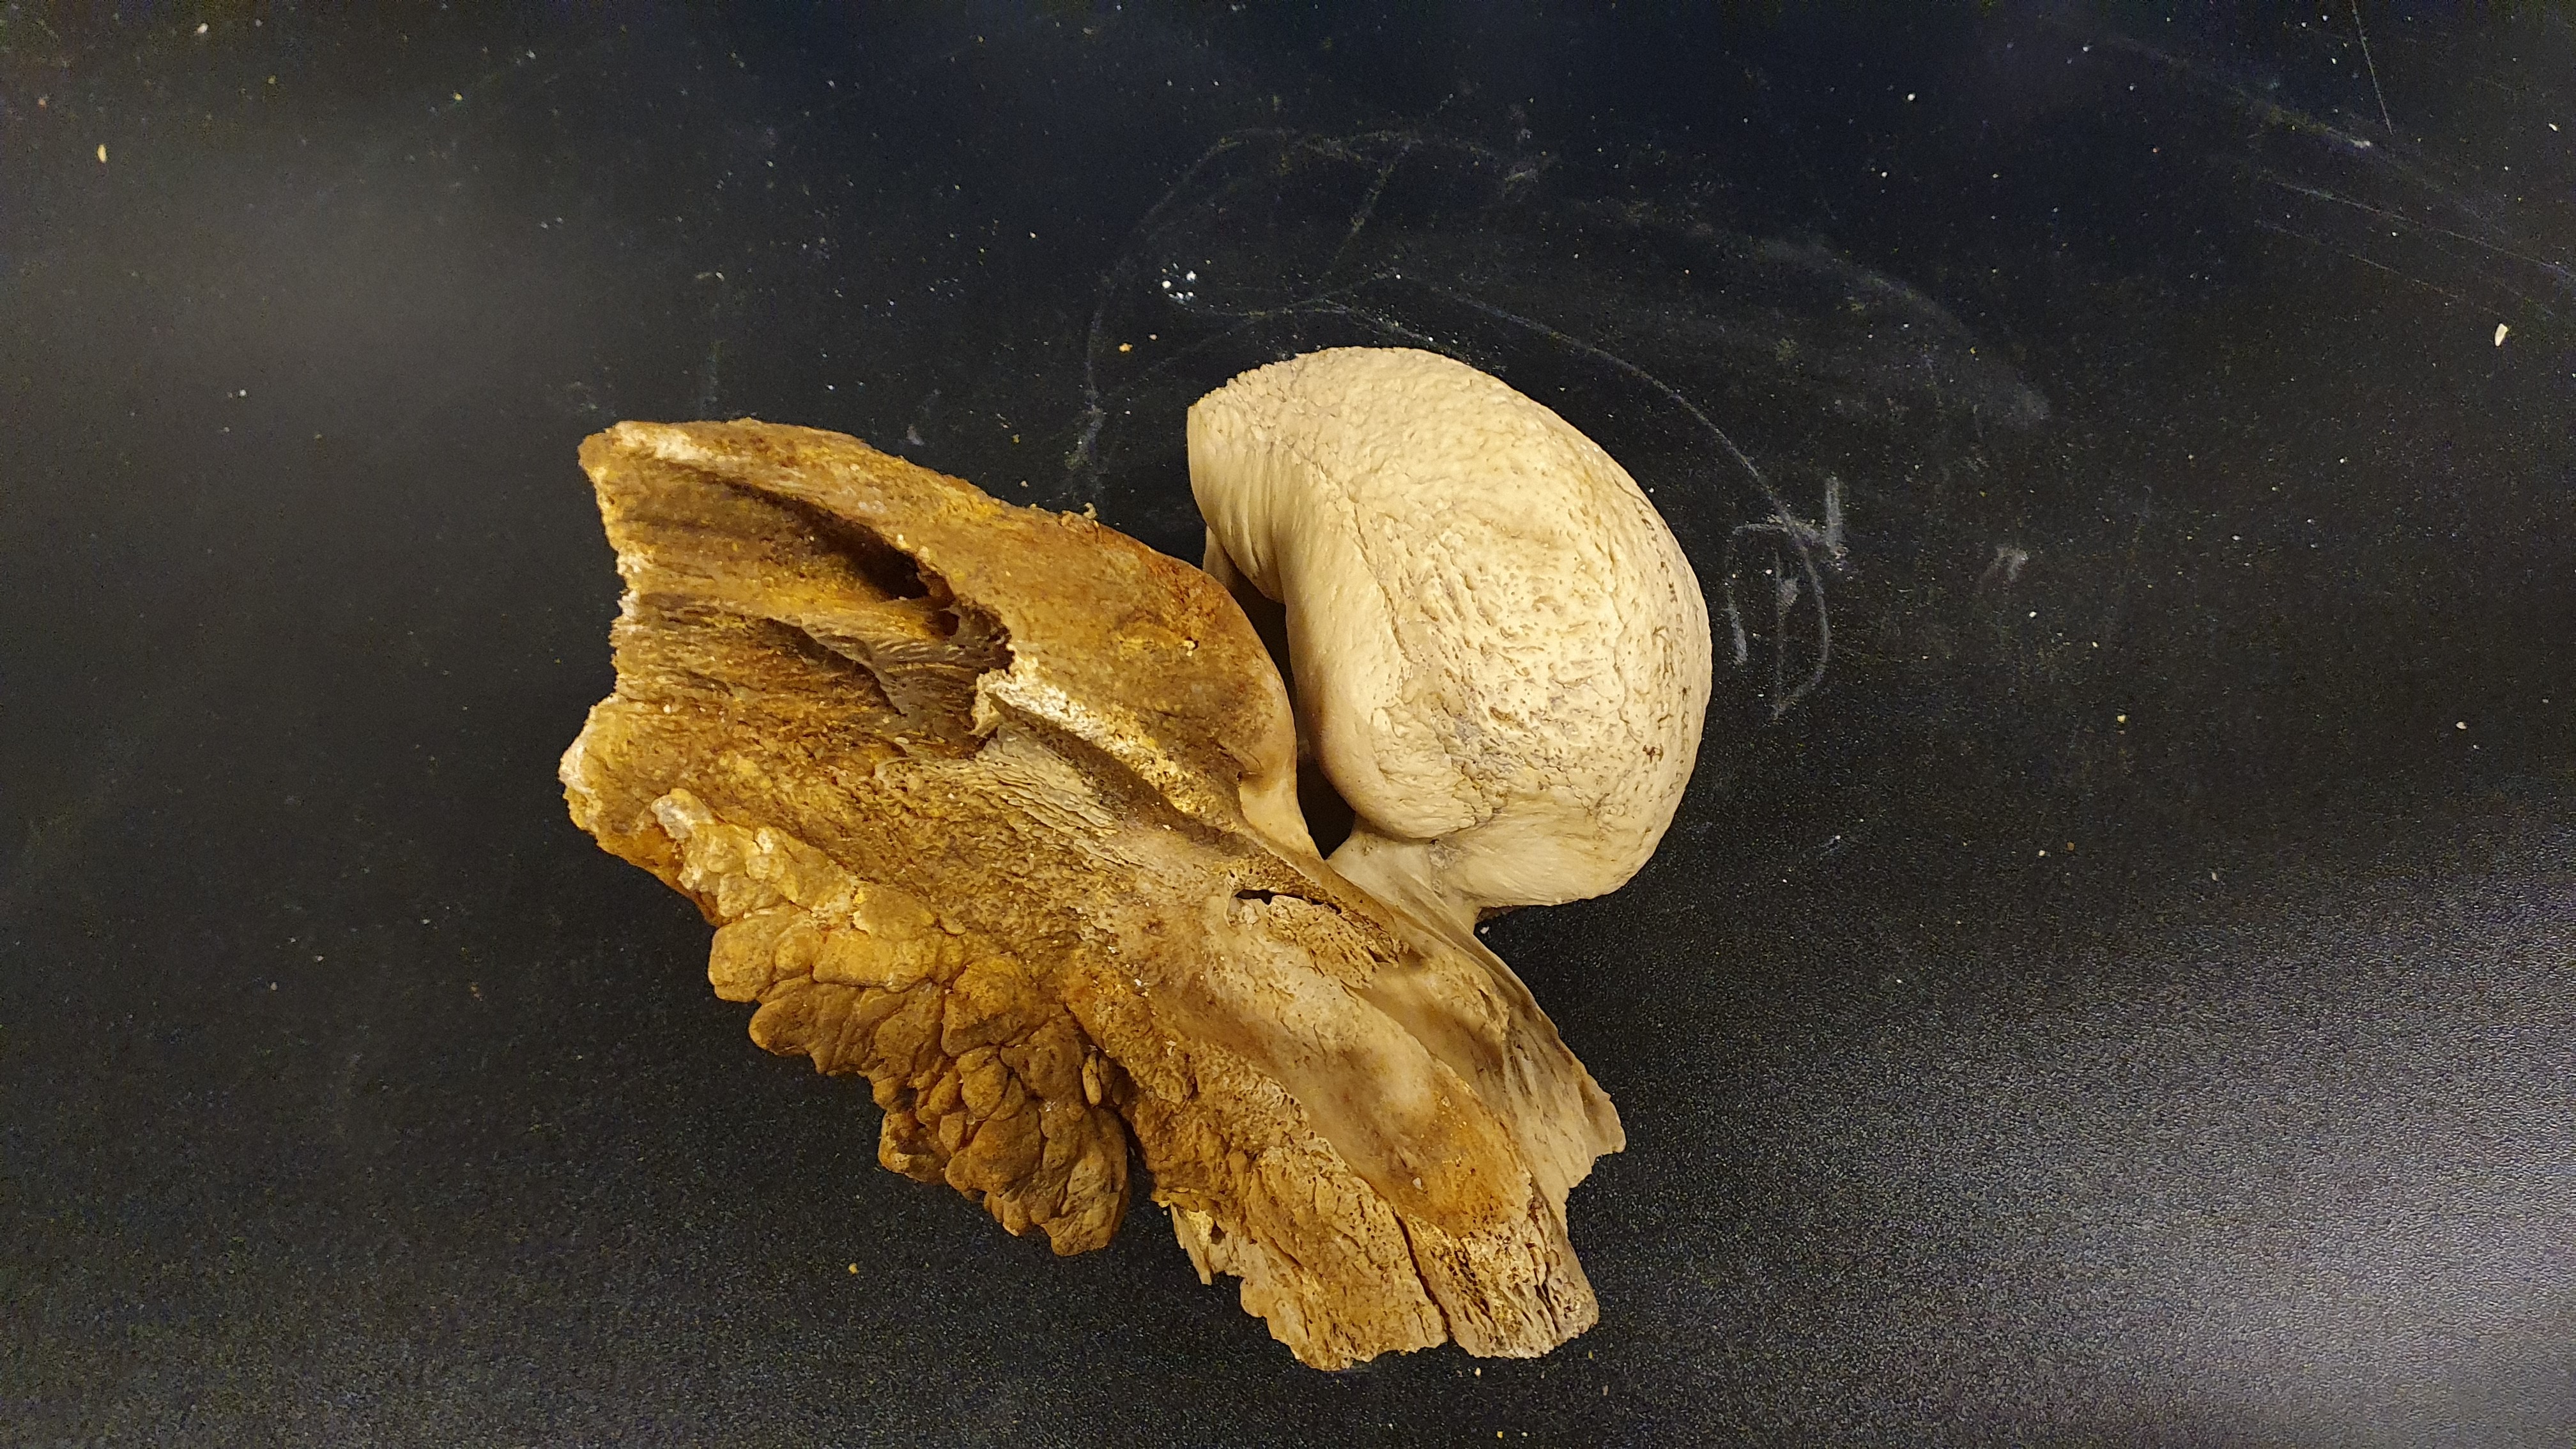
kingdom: Animalia
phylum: Chordata
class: Mammalia
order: Cetacea
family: Balaenopteridae
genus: Megaptera
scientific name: Megaptera novaeangliae
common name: Humpback whale
